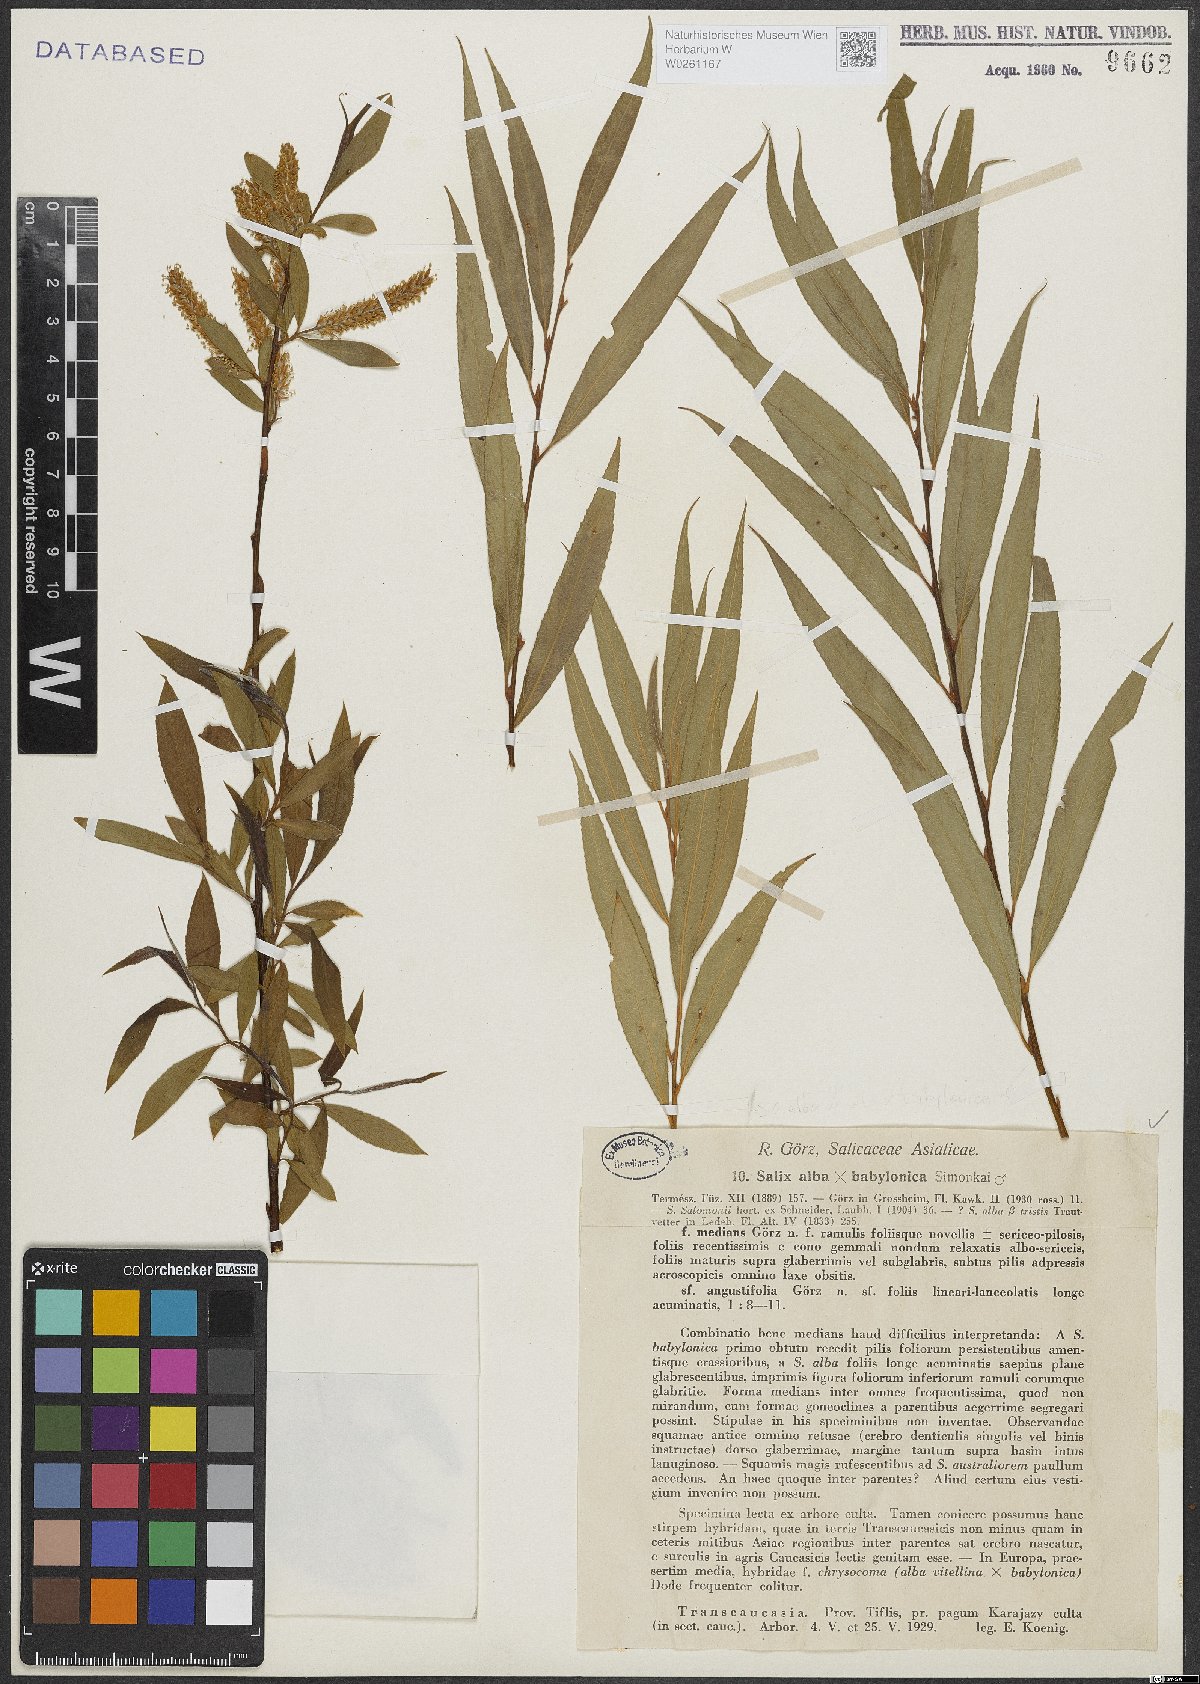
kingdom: Plantae
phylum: Tracheophyta
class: Magnoliopsida
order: Malpighiales
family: Salicaceae
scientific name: Salicaceae
